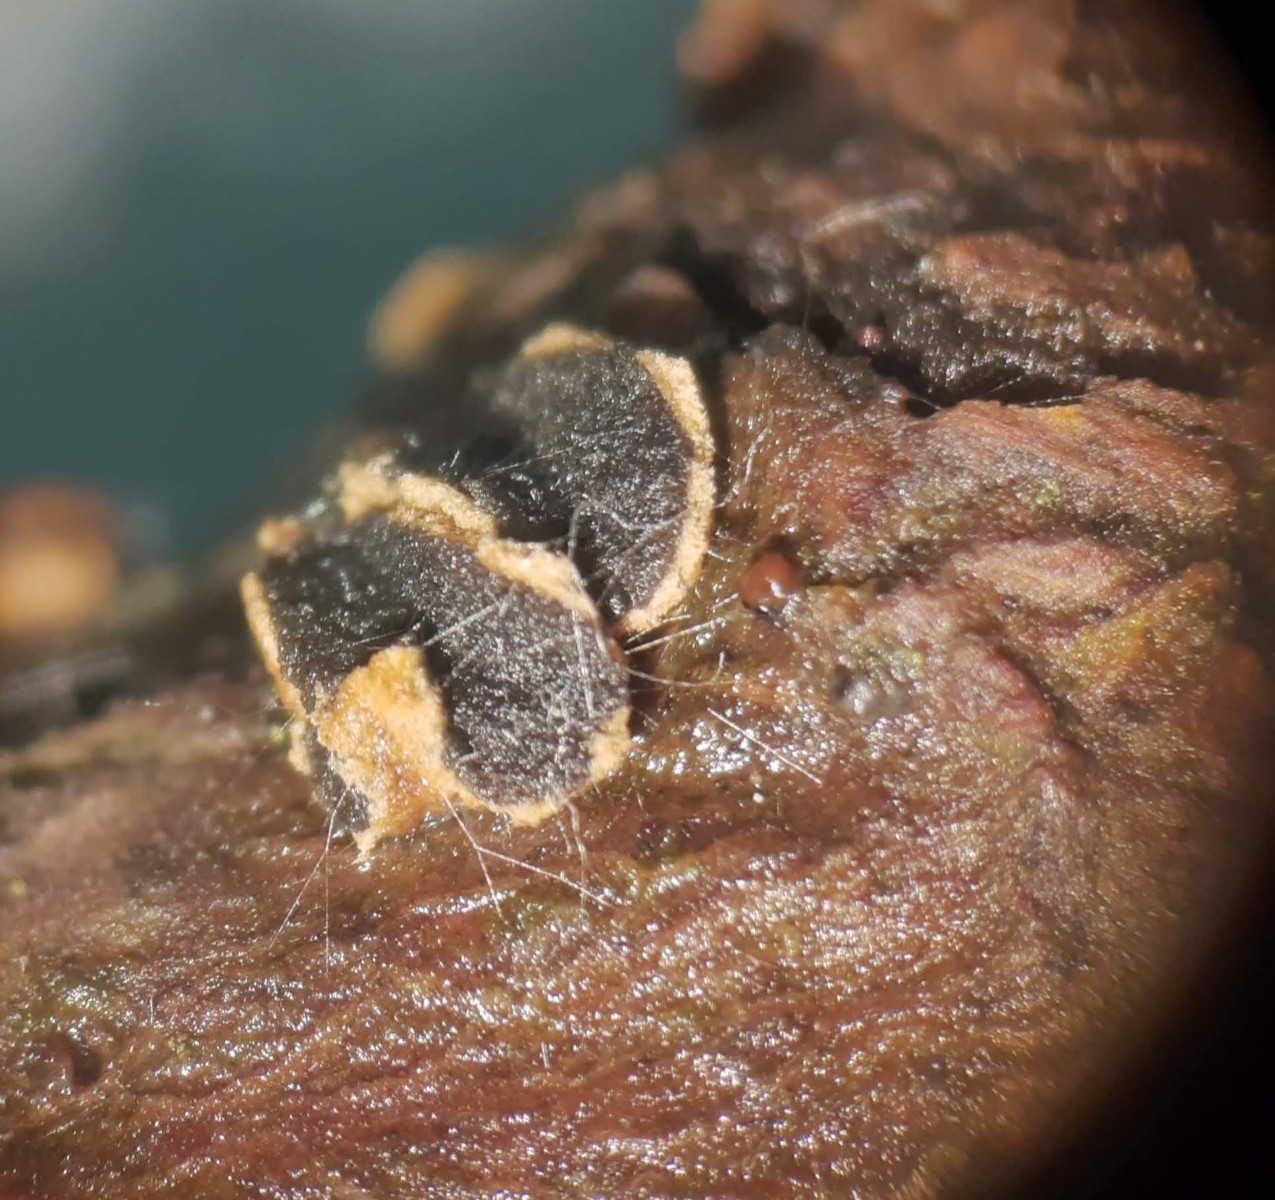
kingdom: Fungi
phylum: Ascomycota
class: Leotiomycetes
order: Helotiales
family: Cenangiaceae
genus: Velutarina
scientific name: Velutarina rufo-olivacea
